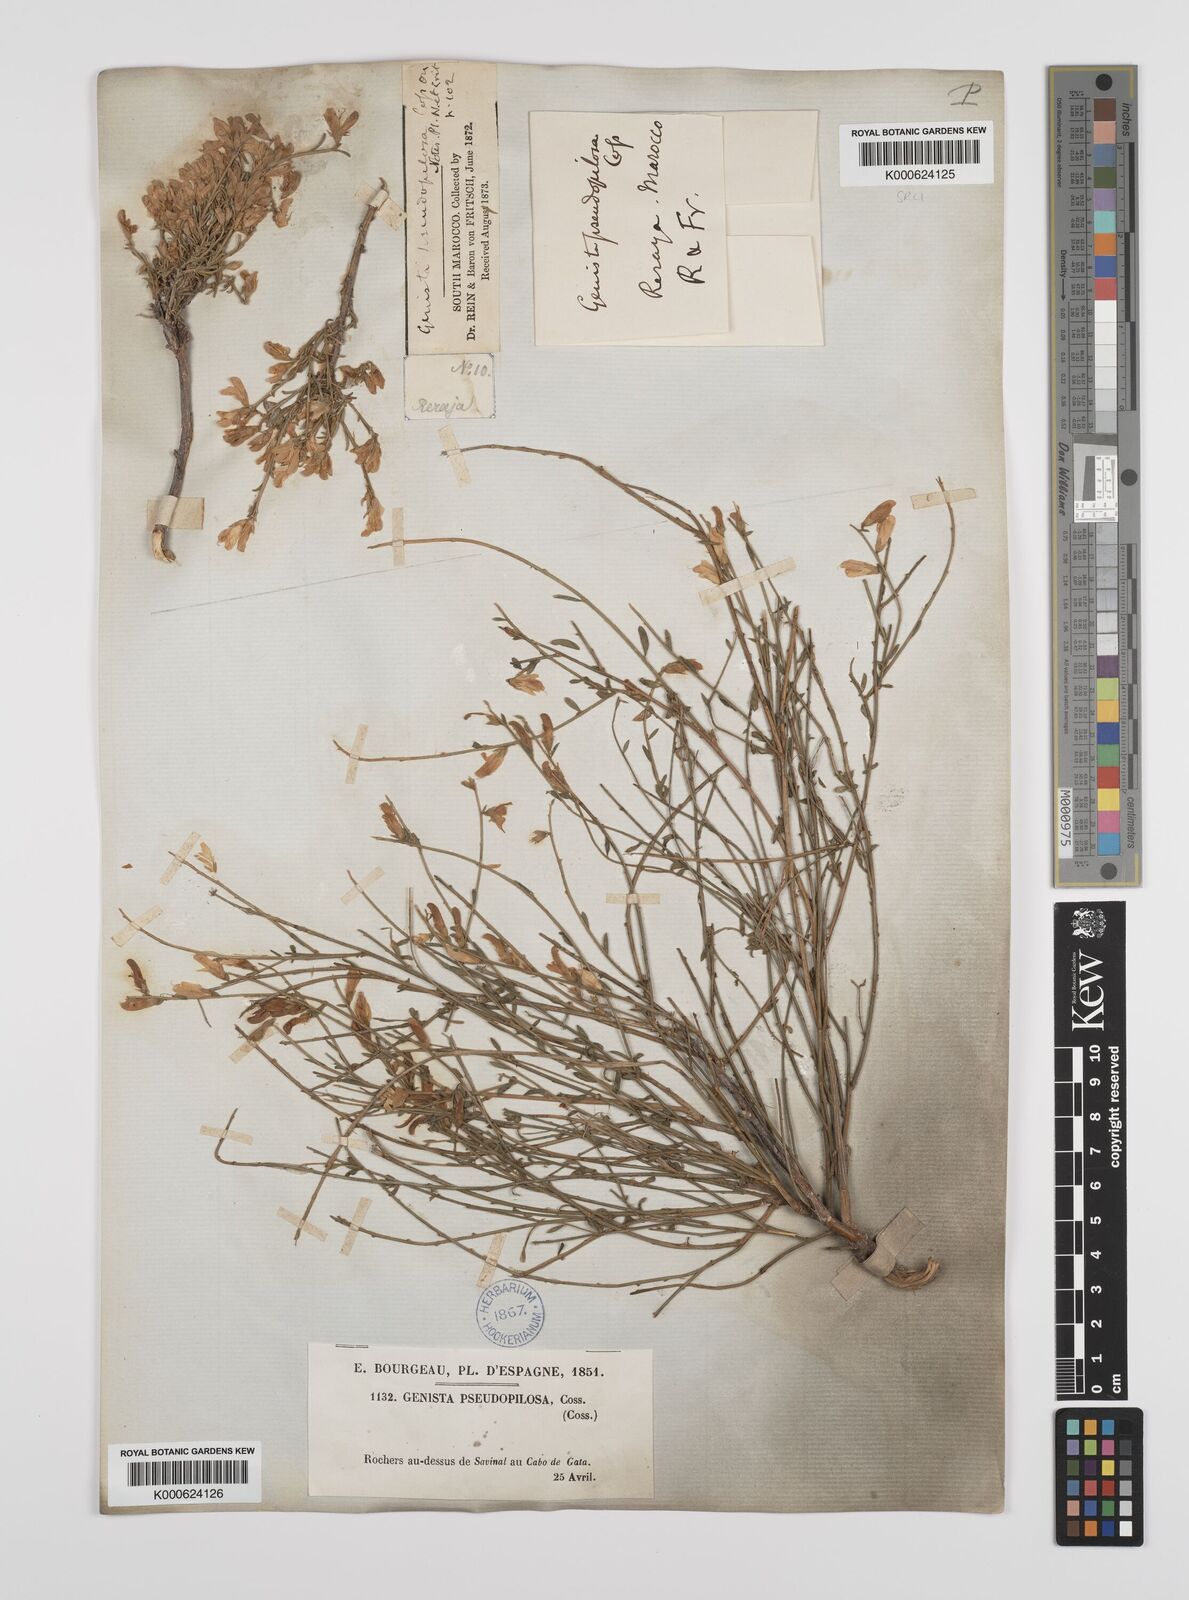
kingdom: Plantae
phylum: Tracheophyta
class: Magnoliopsida
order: Fabales
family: Fabaceae
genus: Genista
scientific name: Genista pseudopilosa
